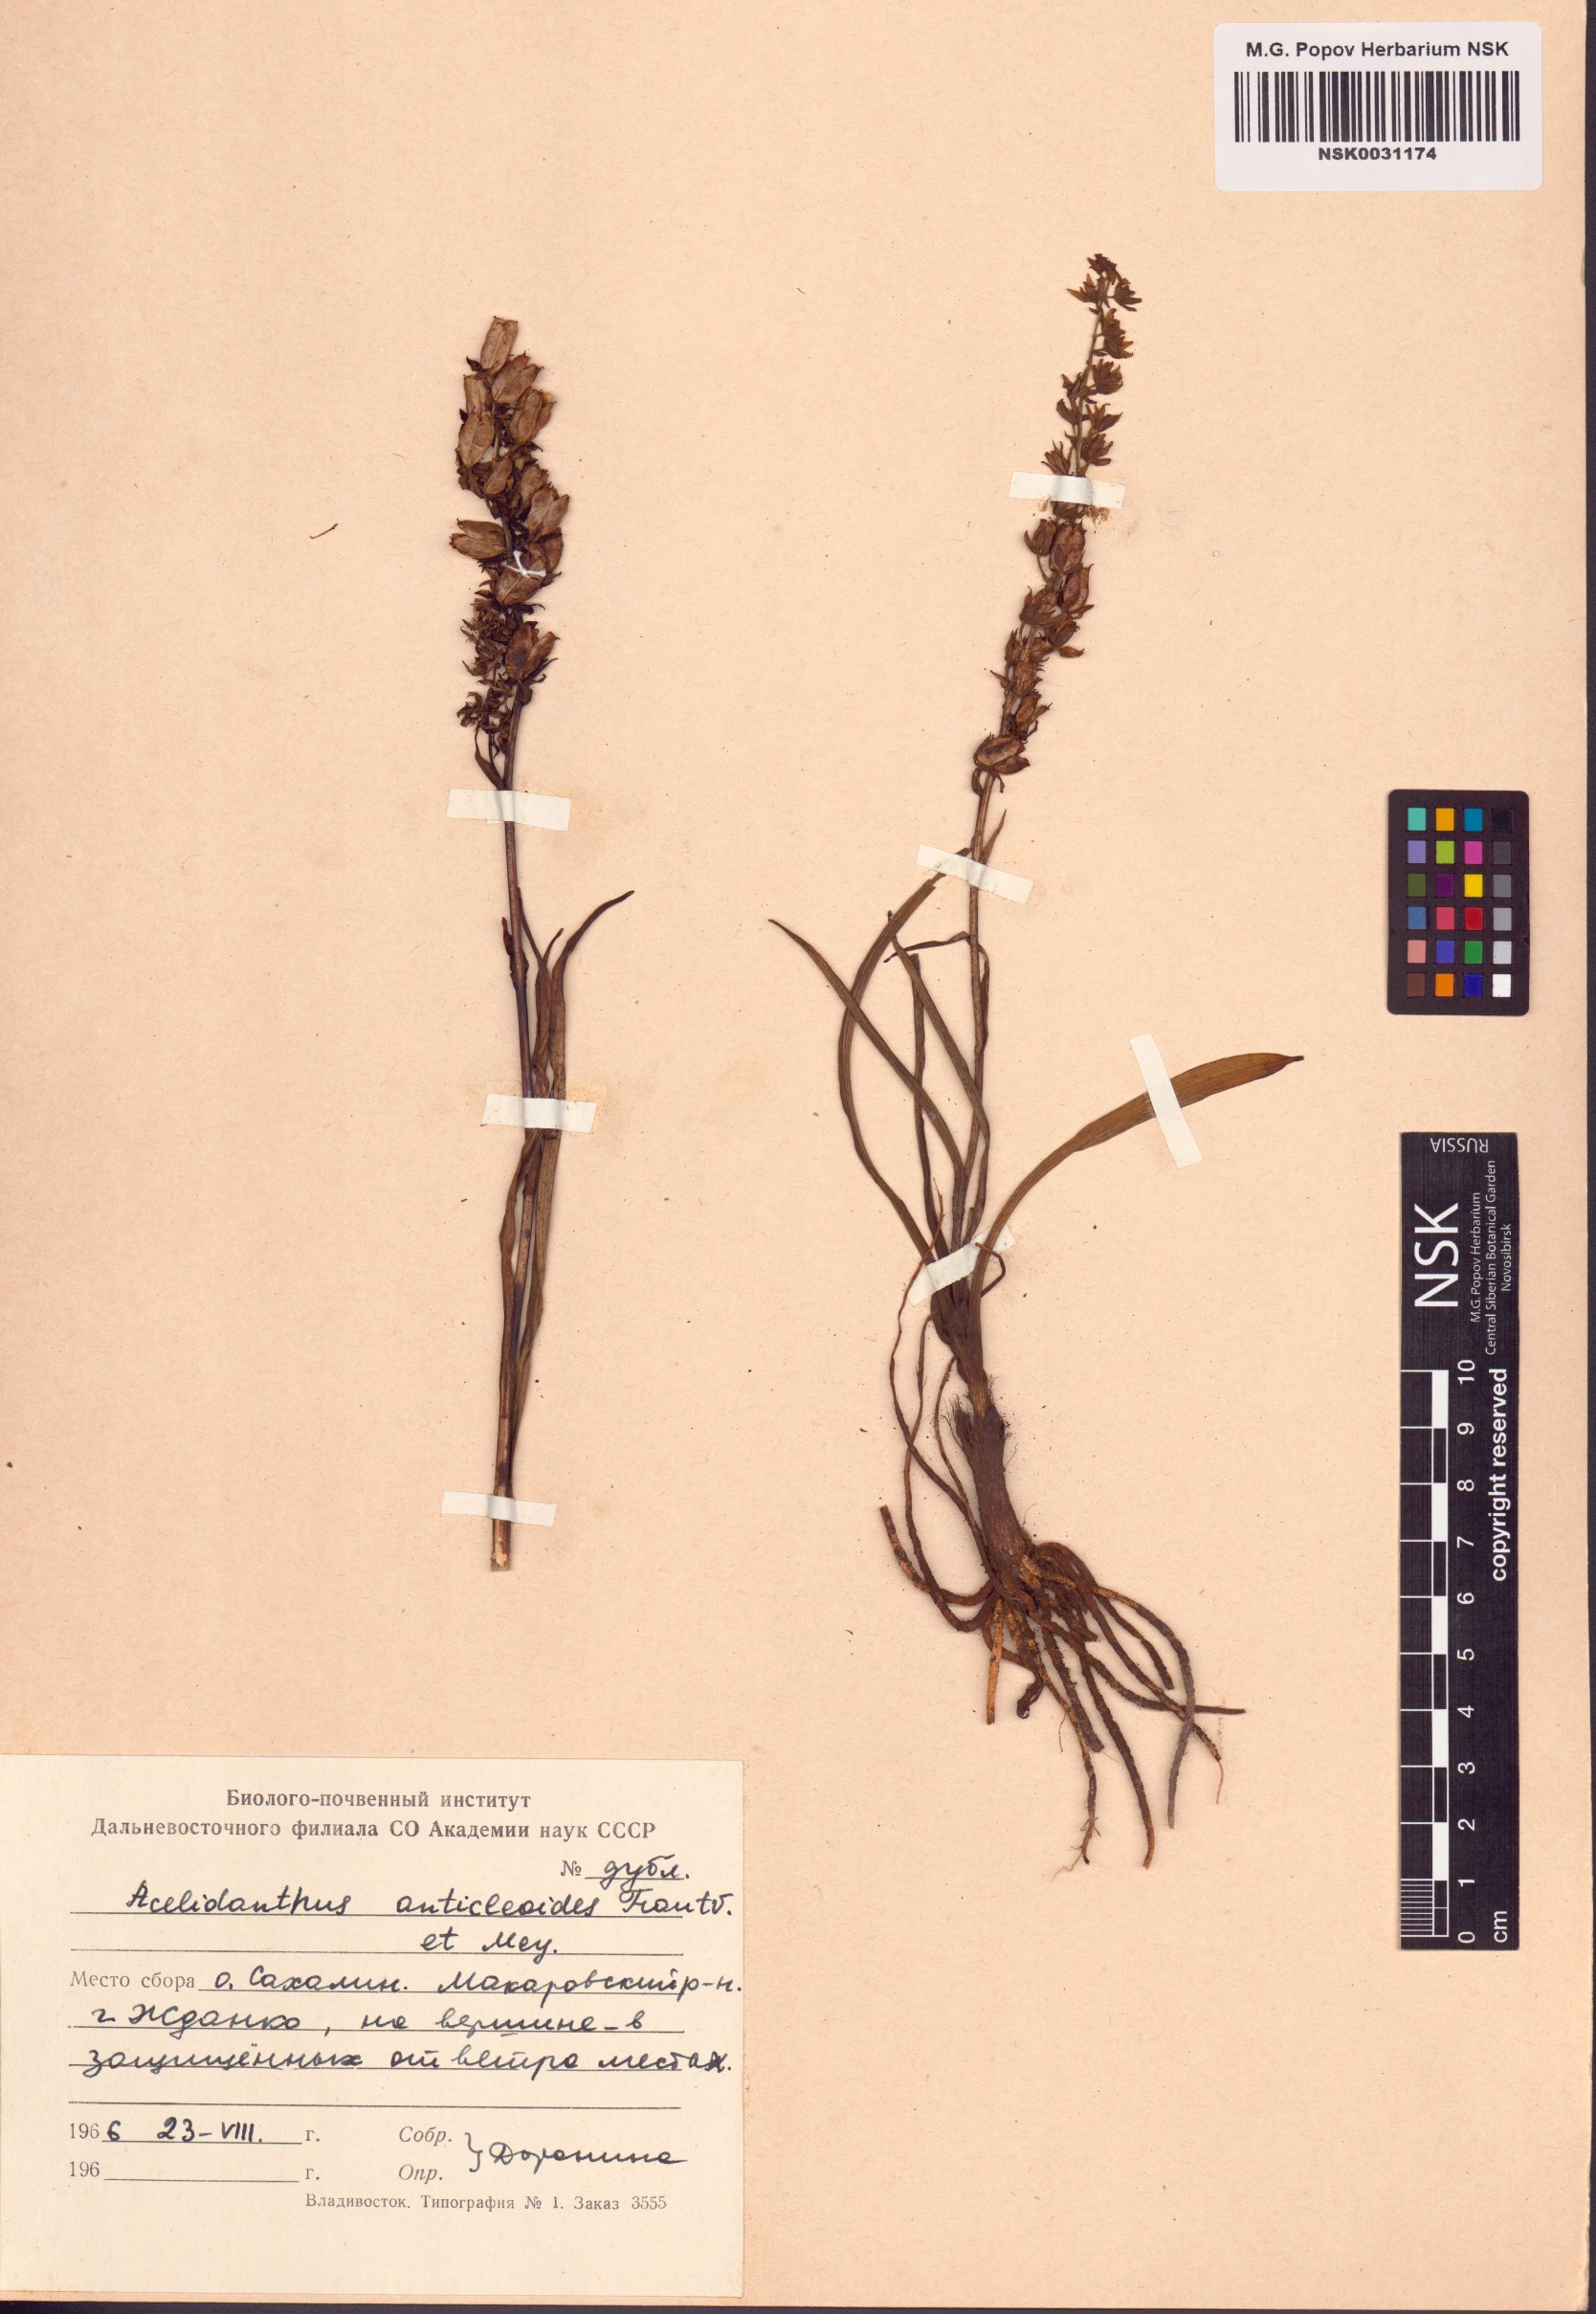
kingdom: Plantae
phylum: Tracheophyta
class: Liliopsida
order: Liliales
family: Melanthiaceae
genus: Veratrum
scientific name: Veratrum anticleoides
